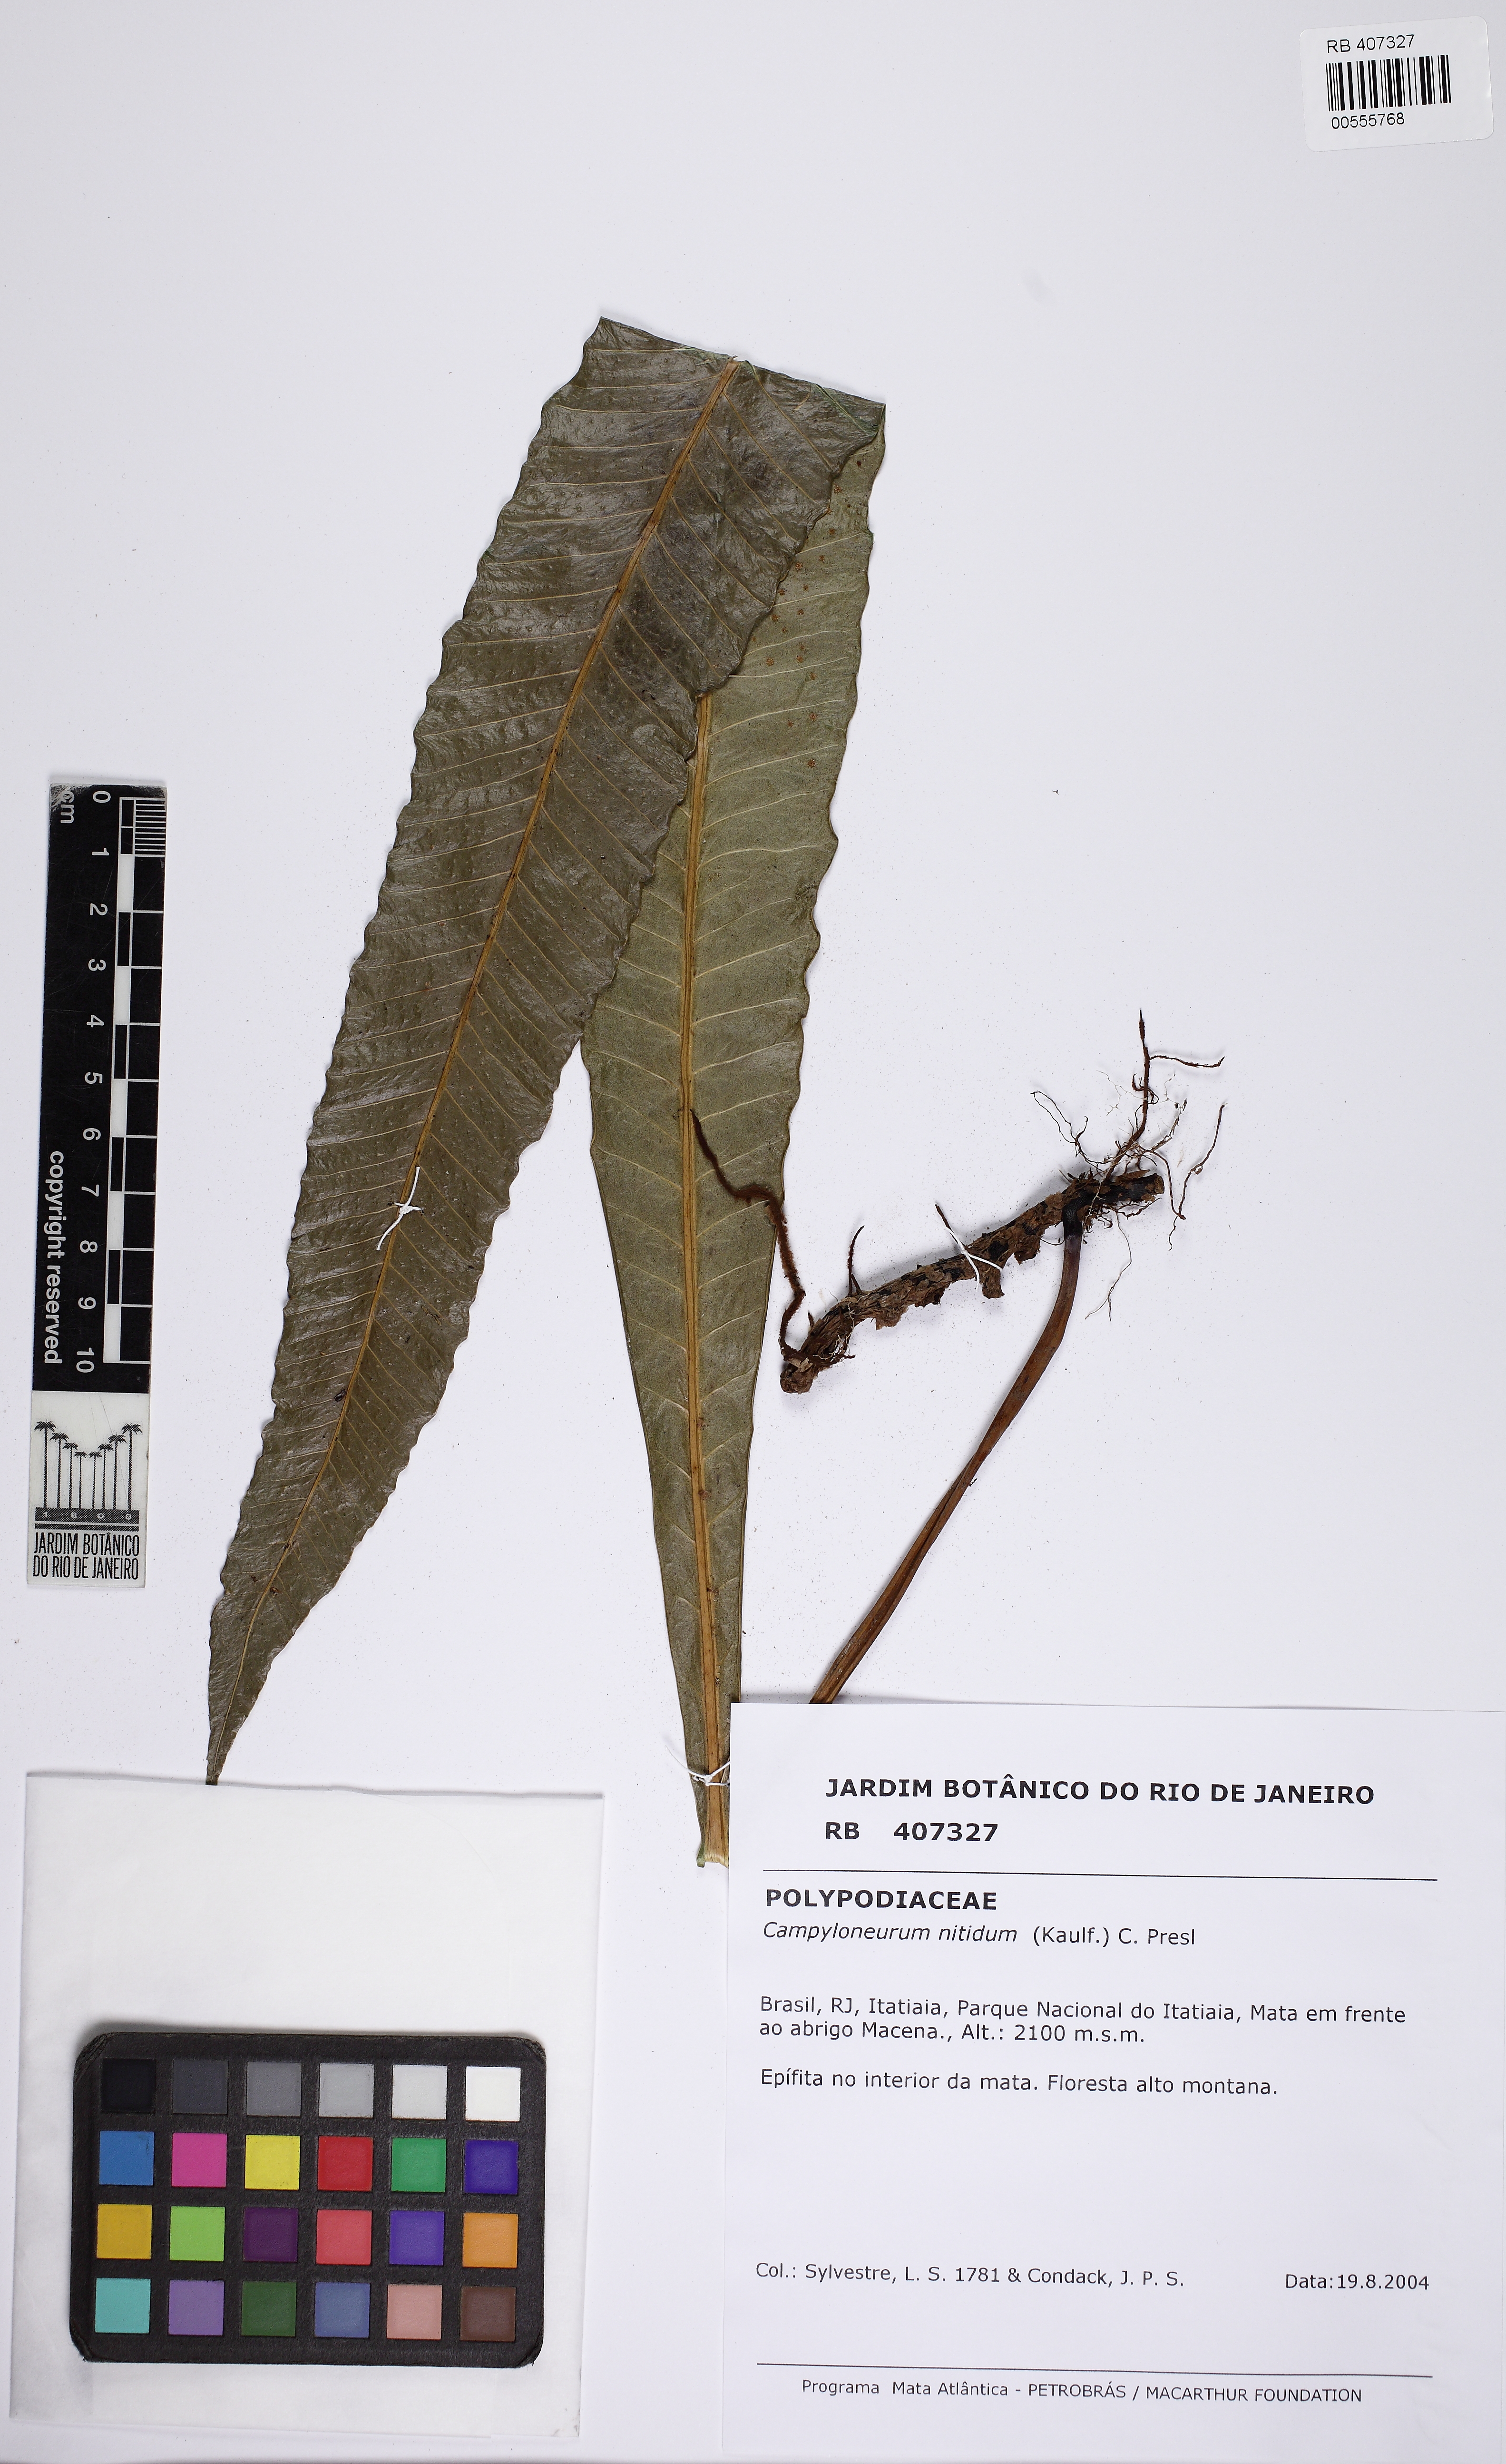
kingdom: Plantae
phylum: Tracheophyta
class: Polypodiopsida
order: Polypodiales
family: Polypodiaceae
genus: Campyloneurum
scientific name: Campyloneurum nitidum
